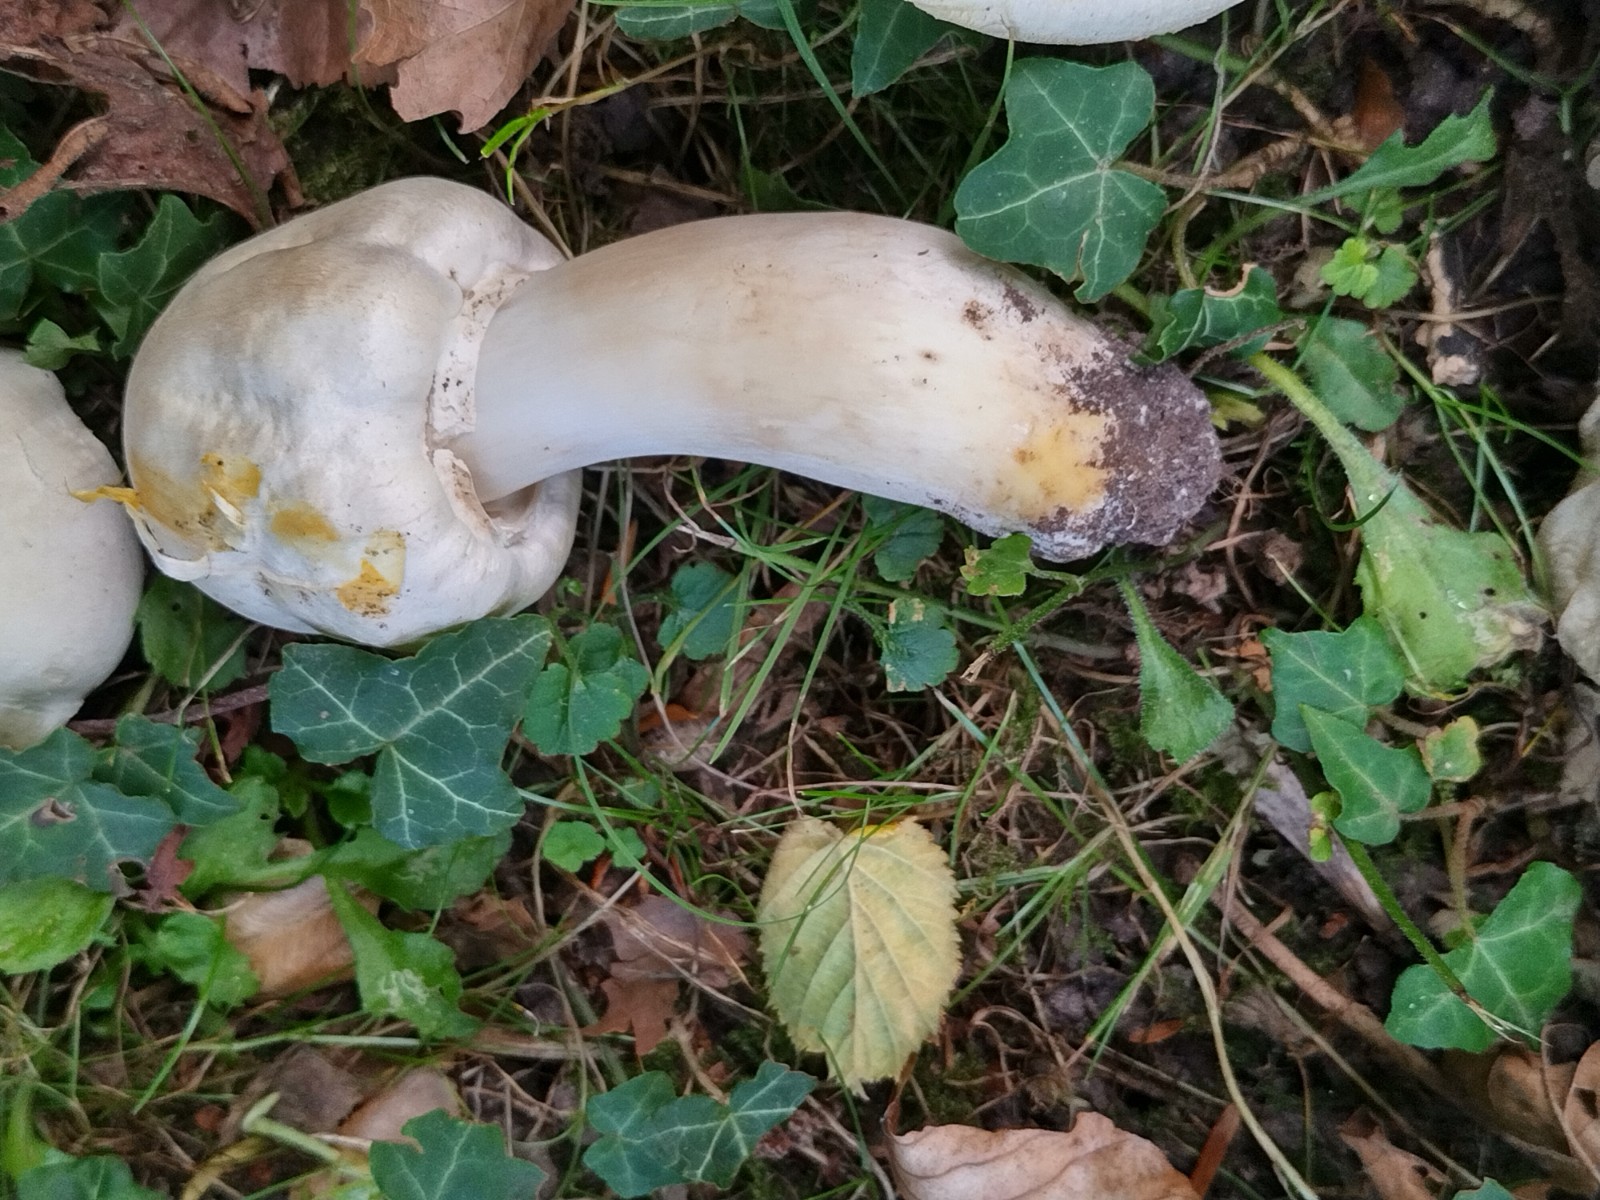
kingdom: Fungi
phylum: Basidiomycota
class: Agaricomycetes
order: Agaricales
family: Agaricaceae
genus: Agaricus
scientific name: Agaricus xanthodermus
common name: karbol-champignon
